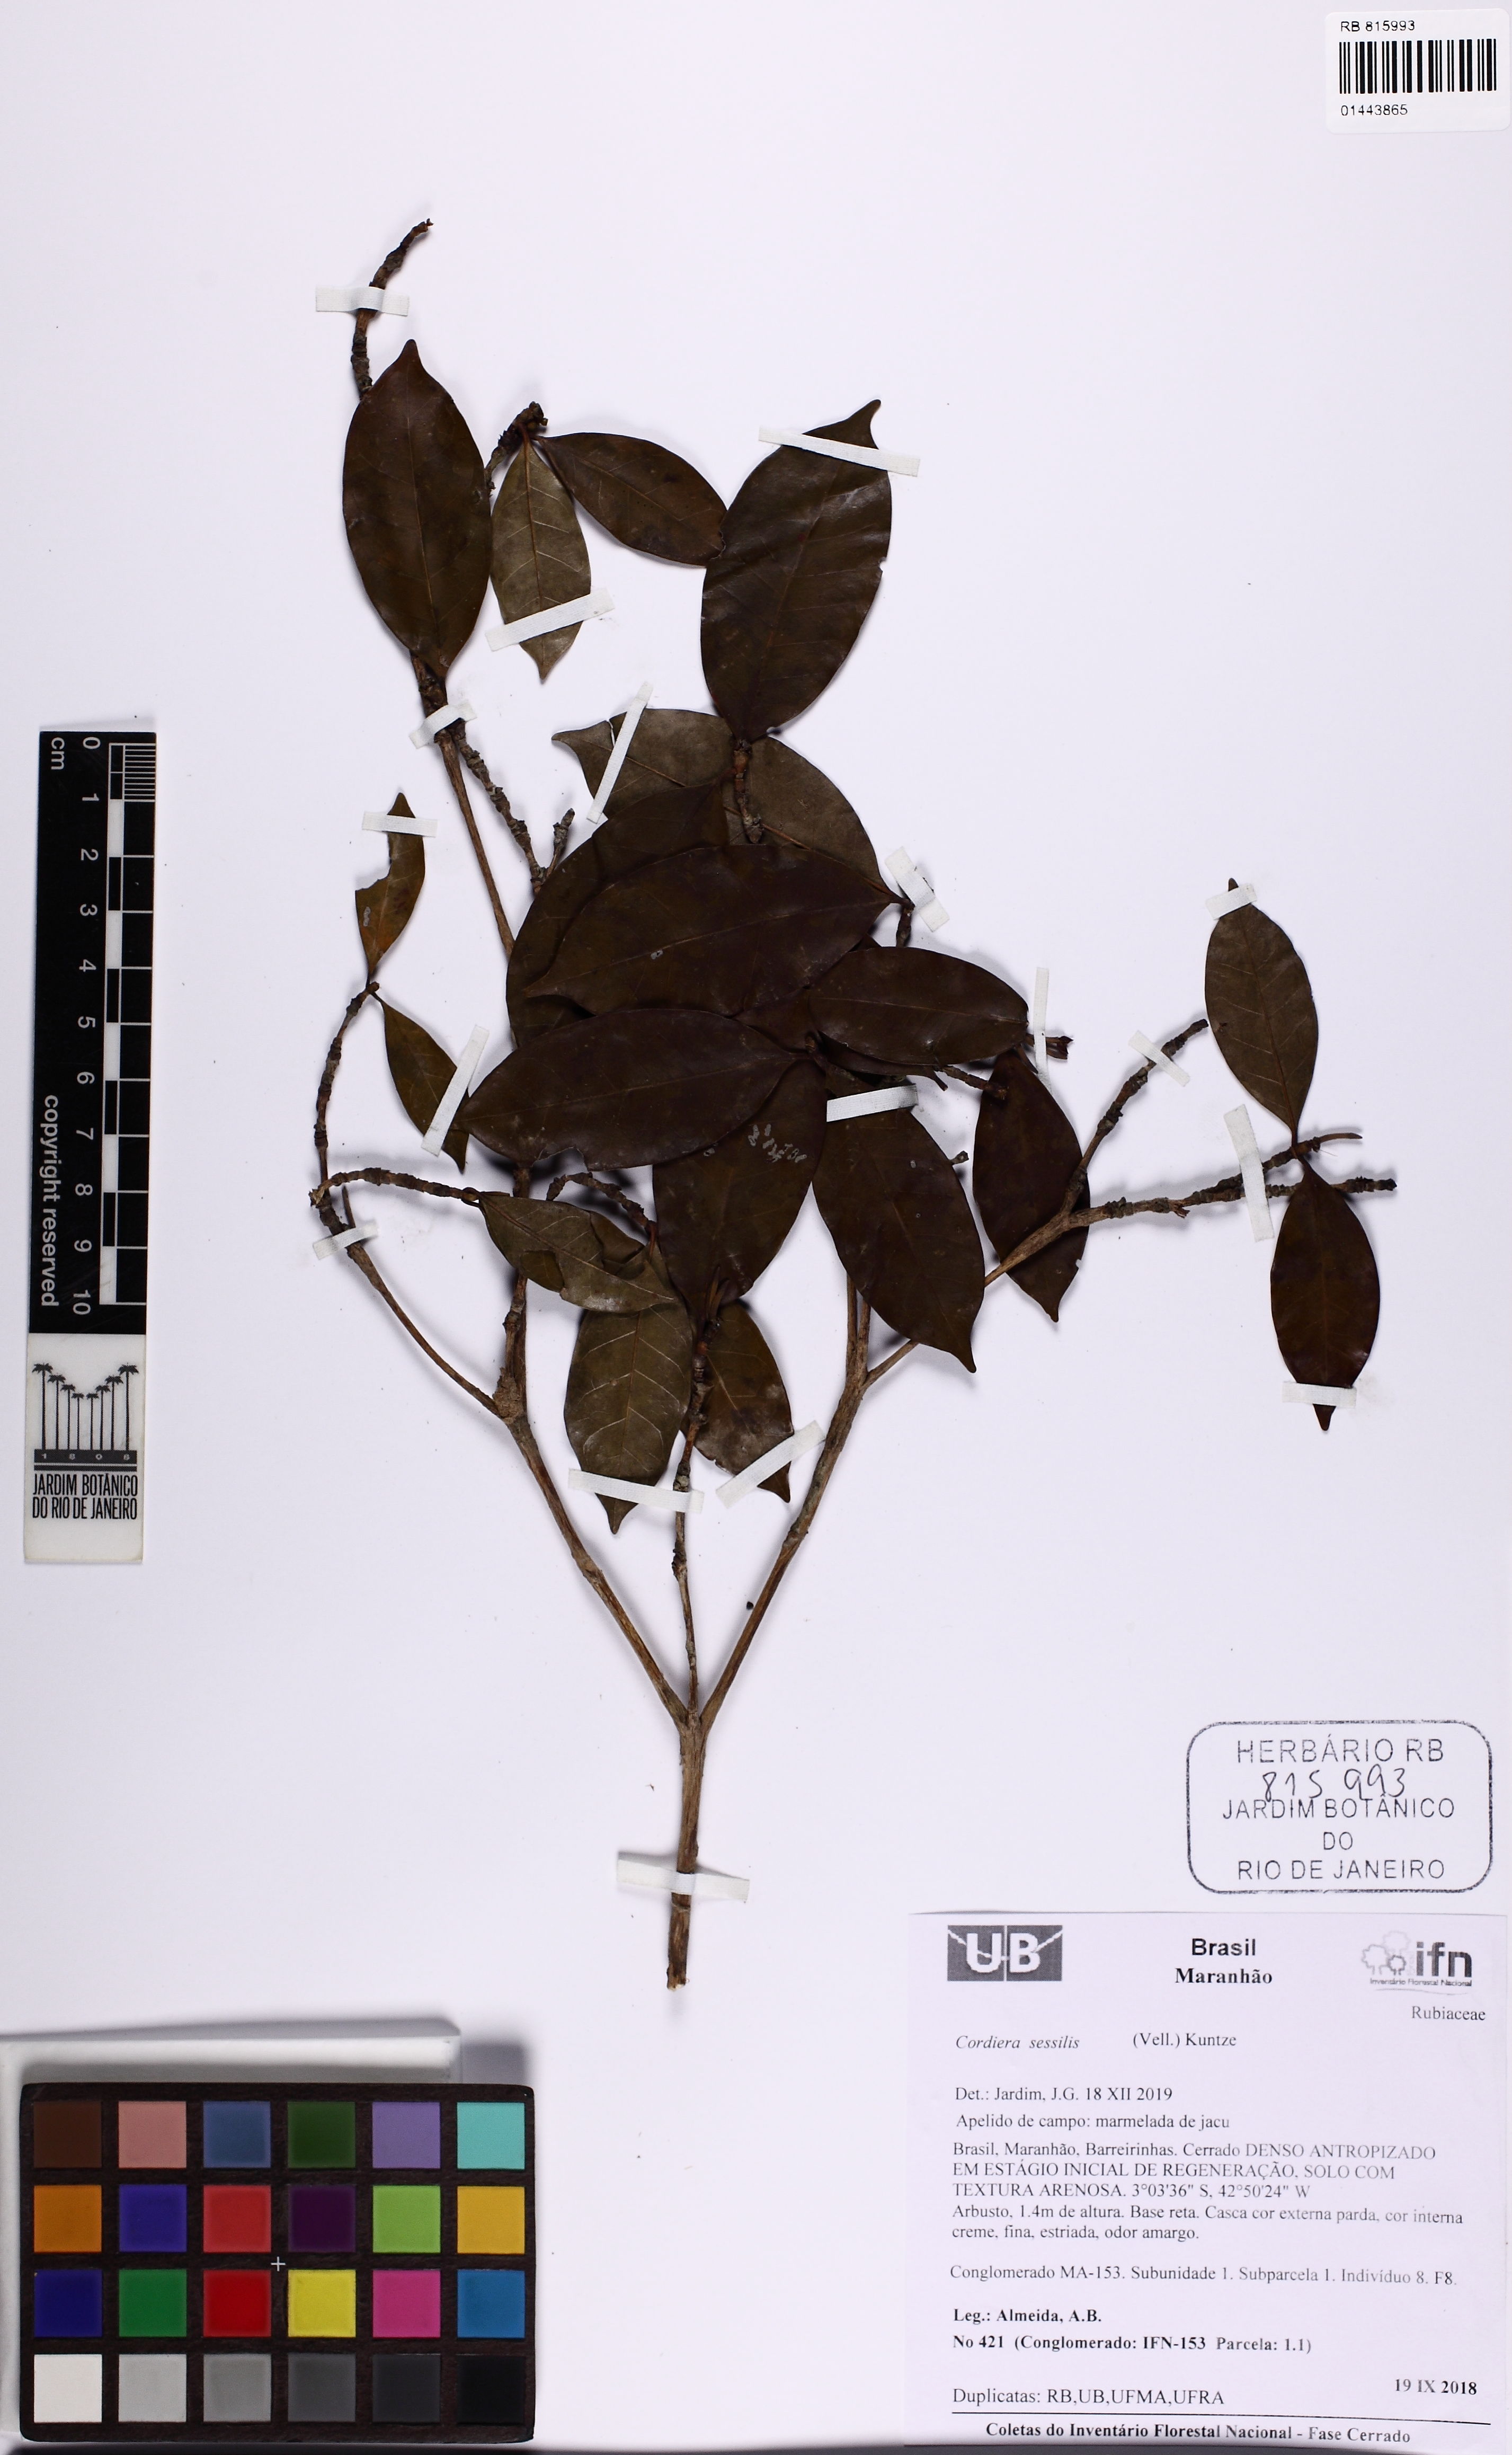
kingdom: Plantae
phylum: Tracheophyta
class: Magnoliopsida
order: Gentianales
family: Rubiaceae
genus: Cordiera
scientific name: Cordiera sessilis
